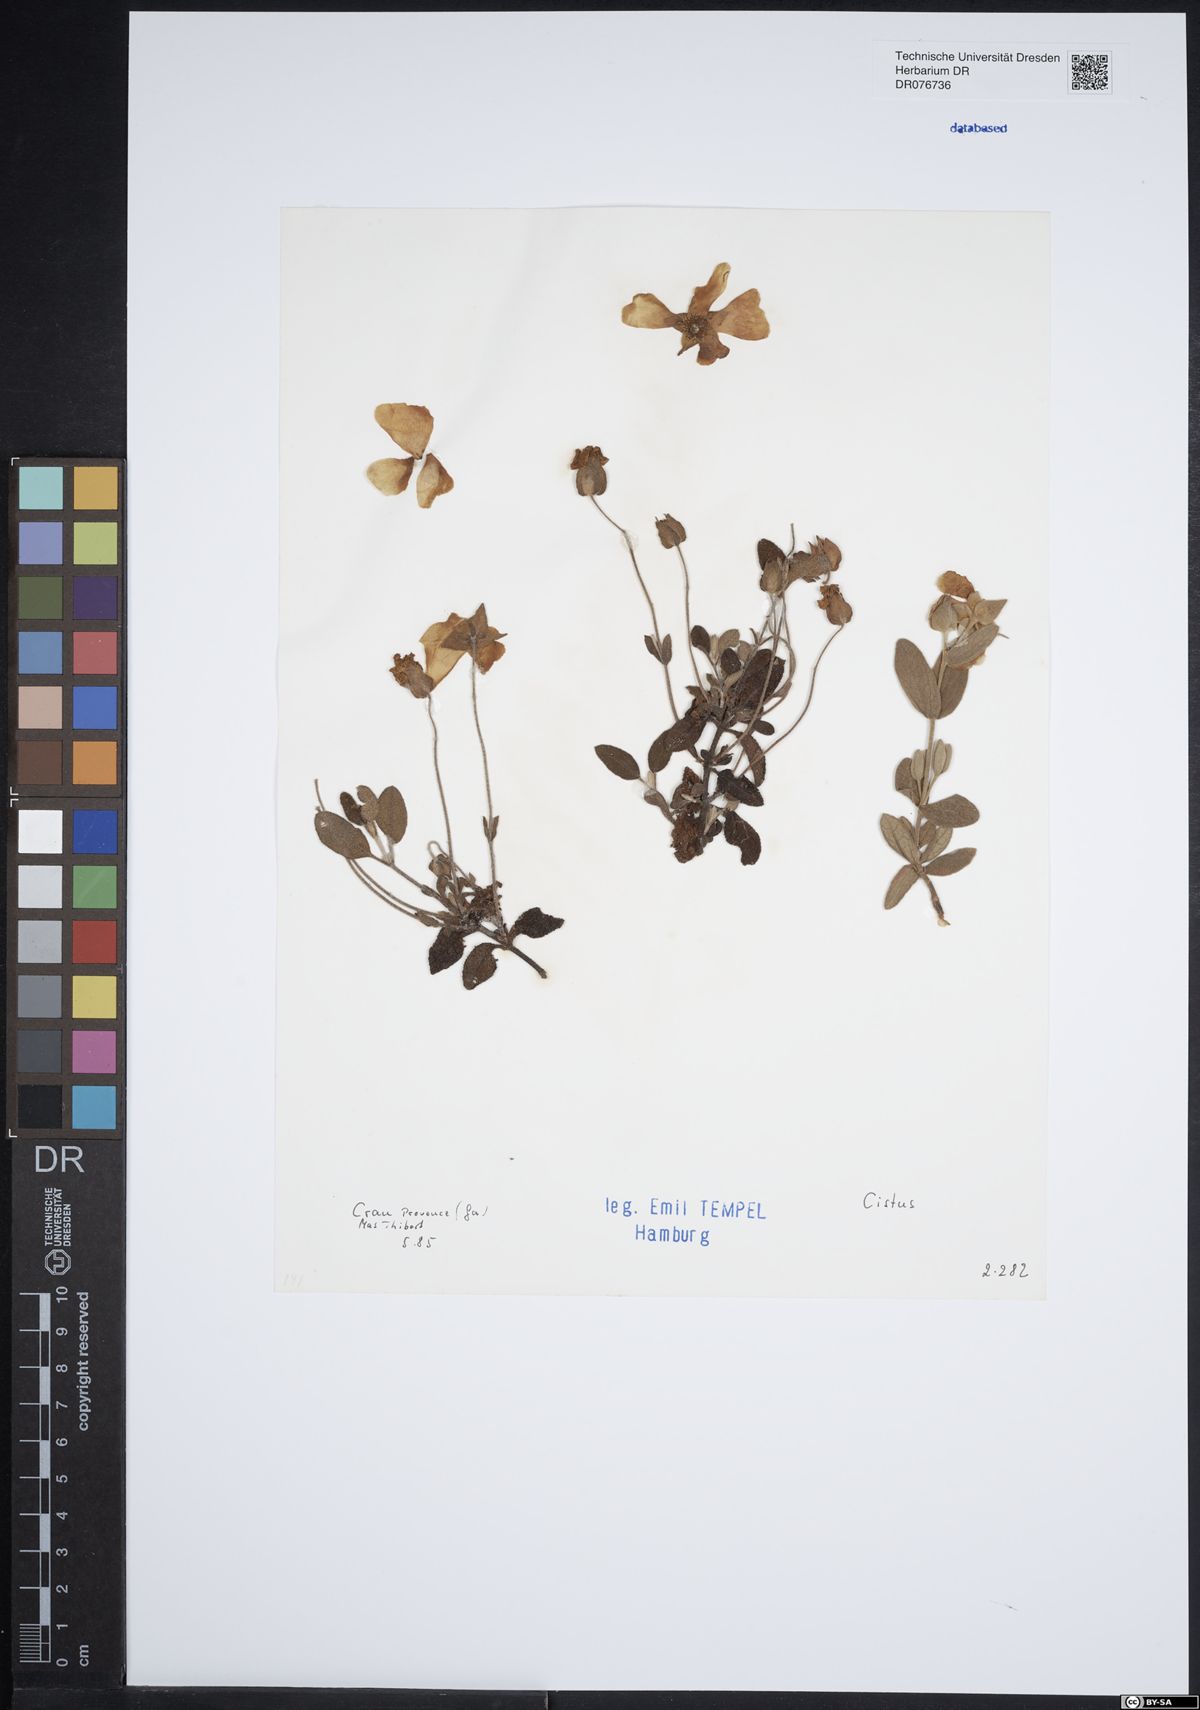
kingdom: Plantae
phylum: Tracheophyta
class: Magnoliopsida
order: Malvales
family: Cistaceae
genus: Cistus
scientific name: Cistus
